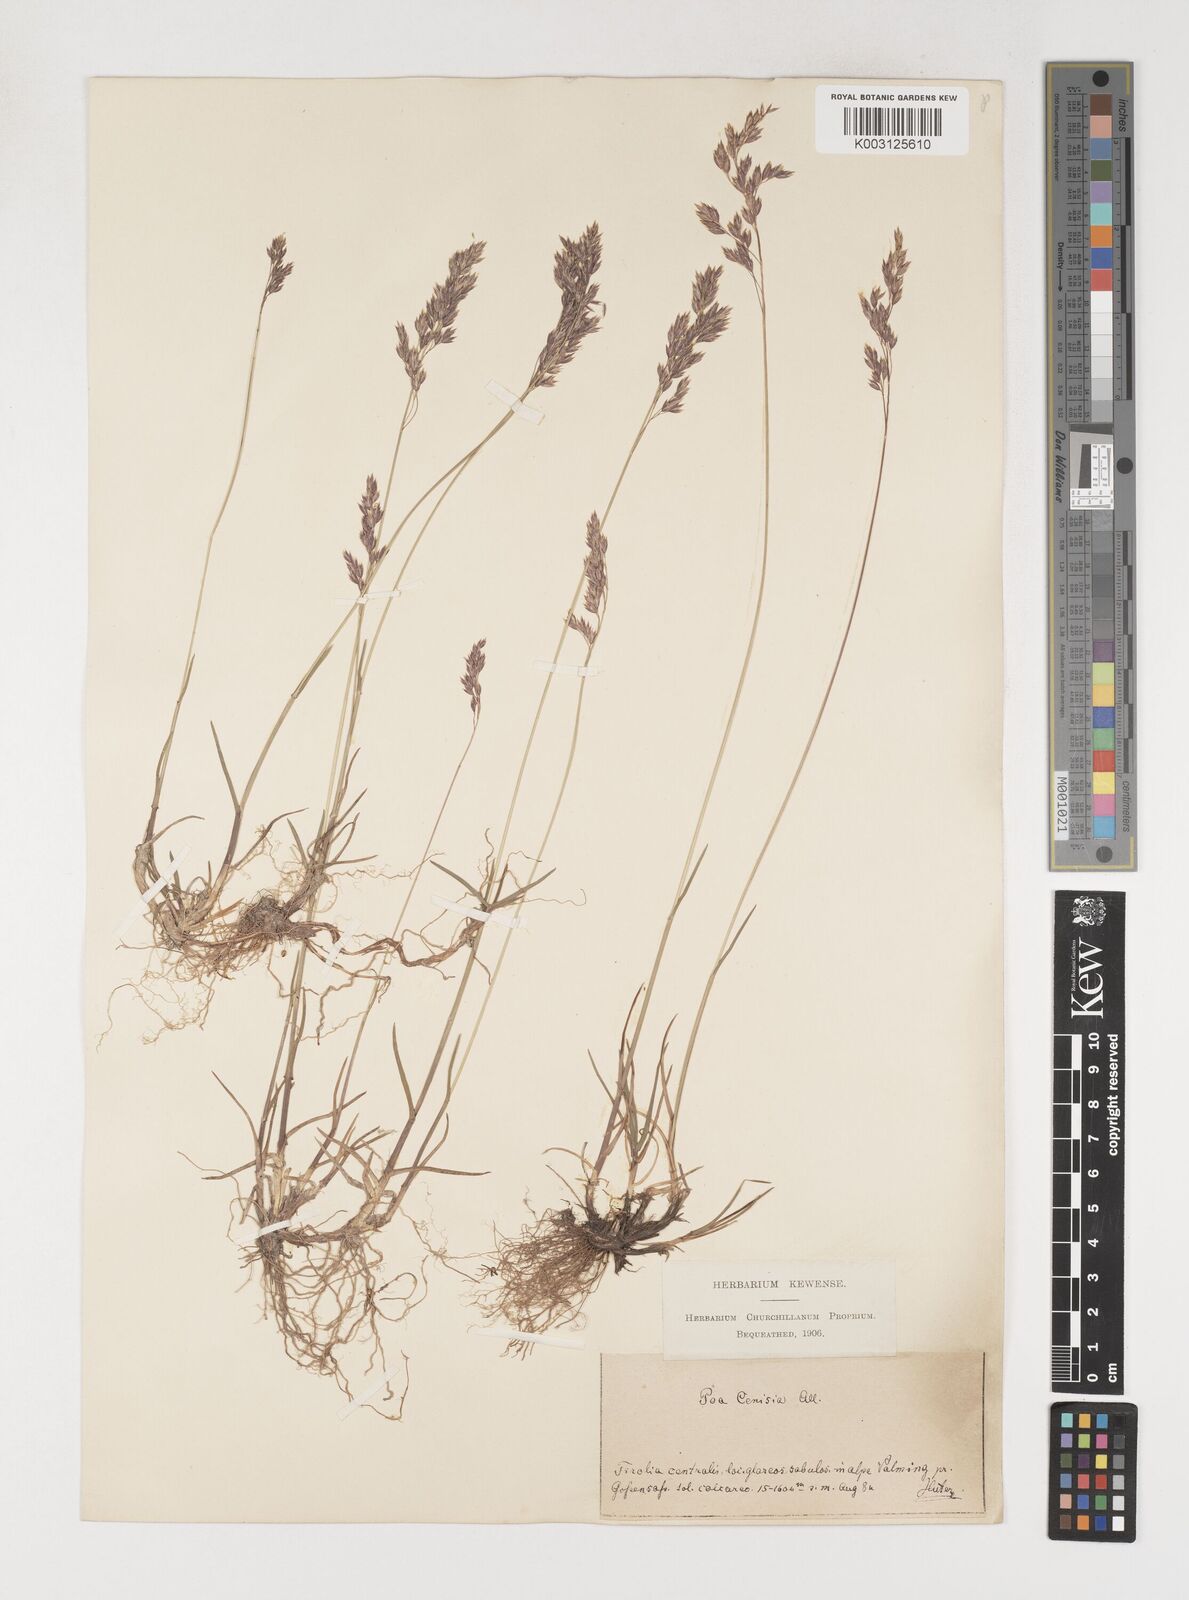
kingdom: Plantae
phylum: Tracheophyta
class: Liliopsida
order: Poales
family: Poaceae
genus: Poa
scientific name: Poa cenisia
